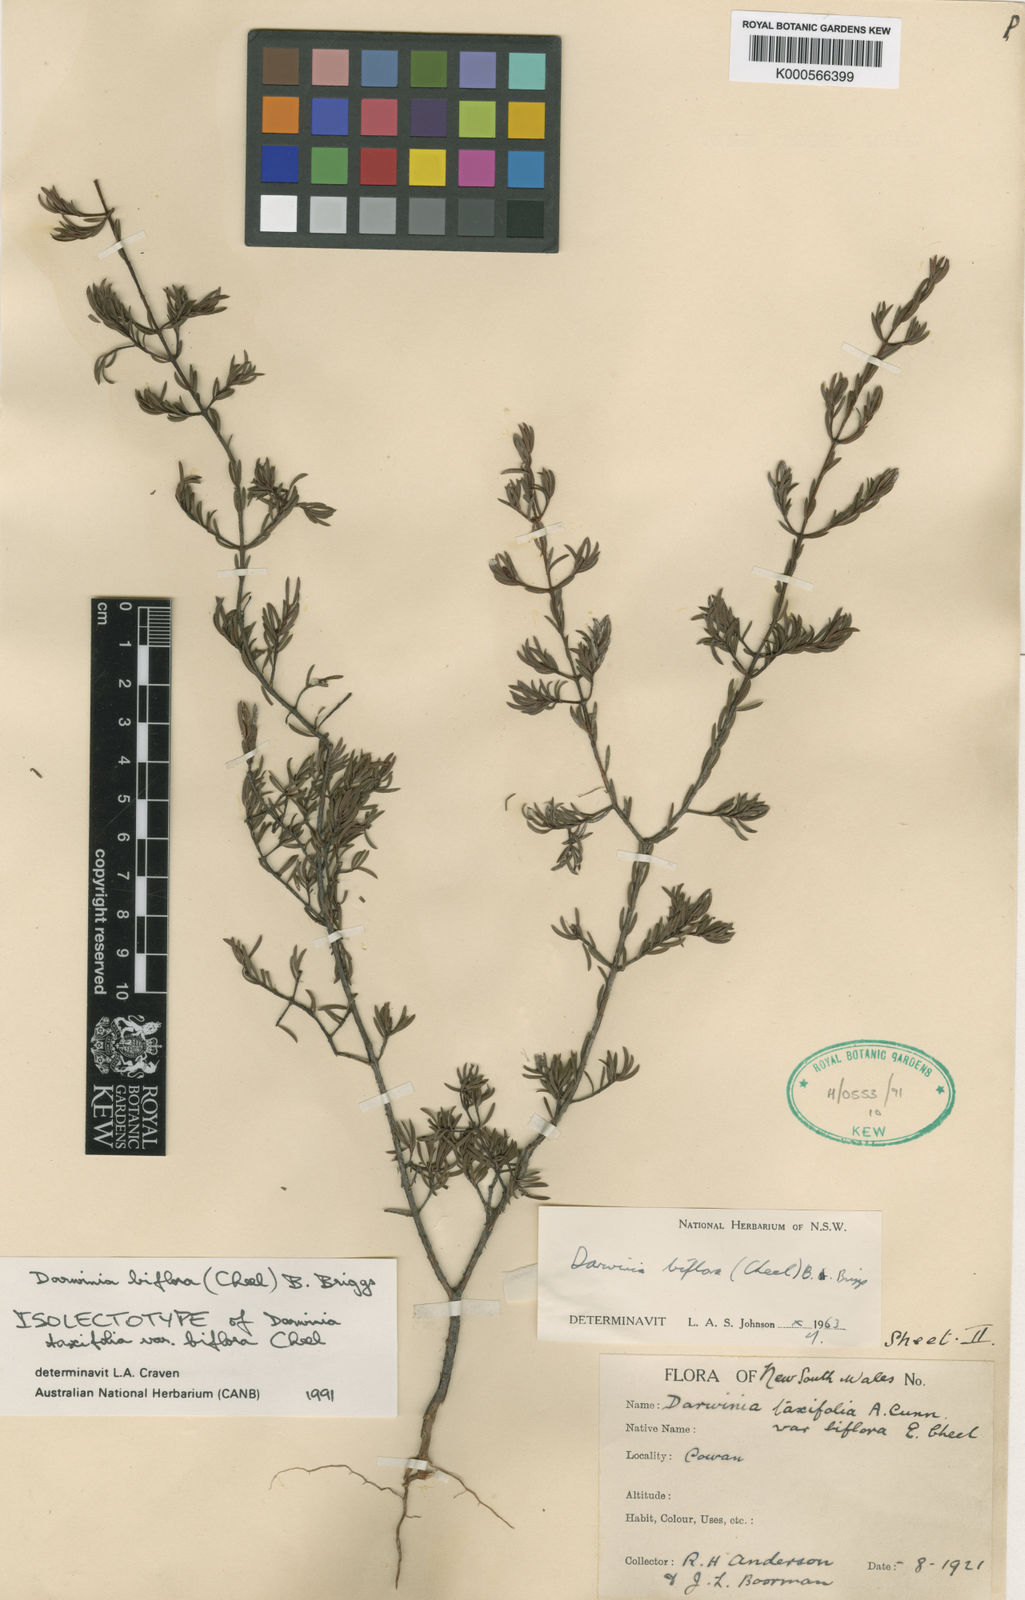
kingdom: Plantae
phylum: Tracheophyta
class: Magnoliopsida
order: Myrtales
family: Myrtaceae
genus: Darwinia
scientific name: Darwinia biflora
